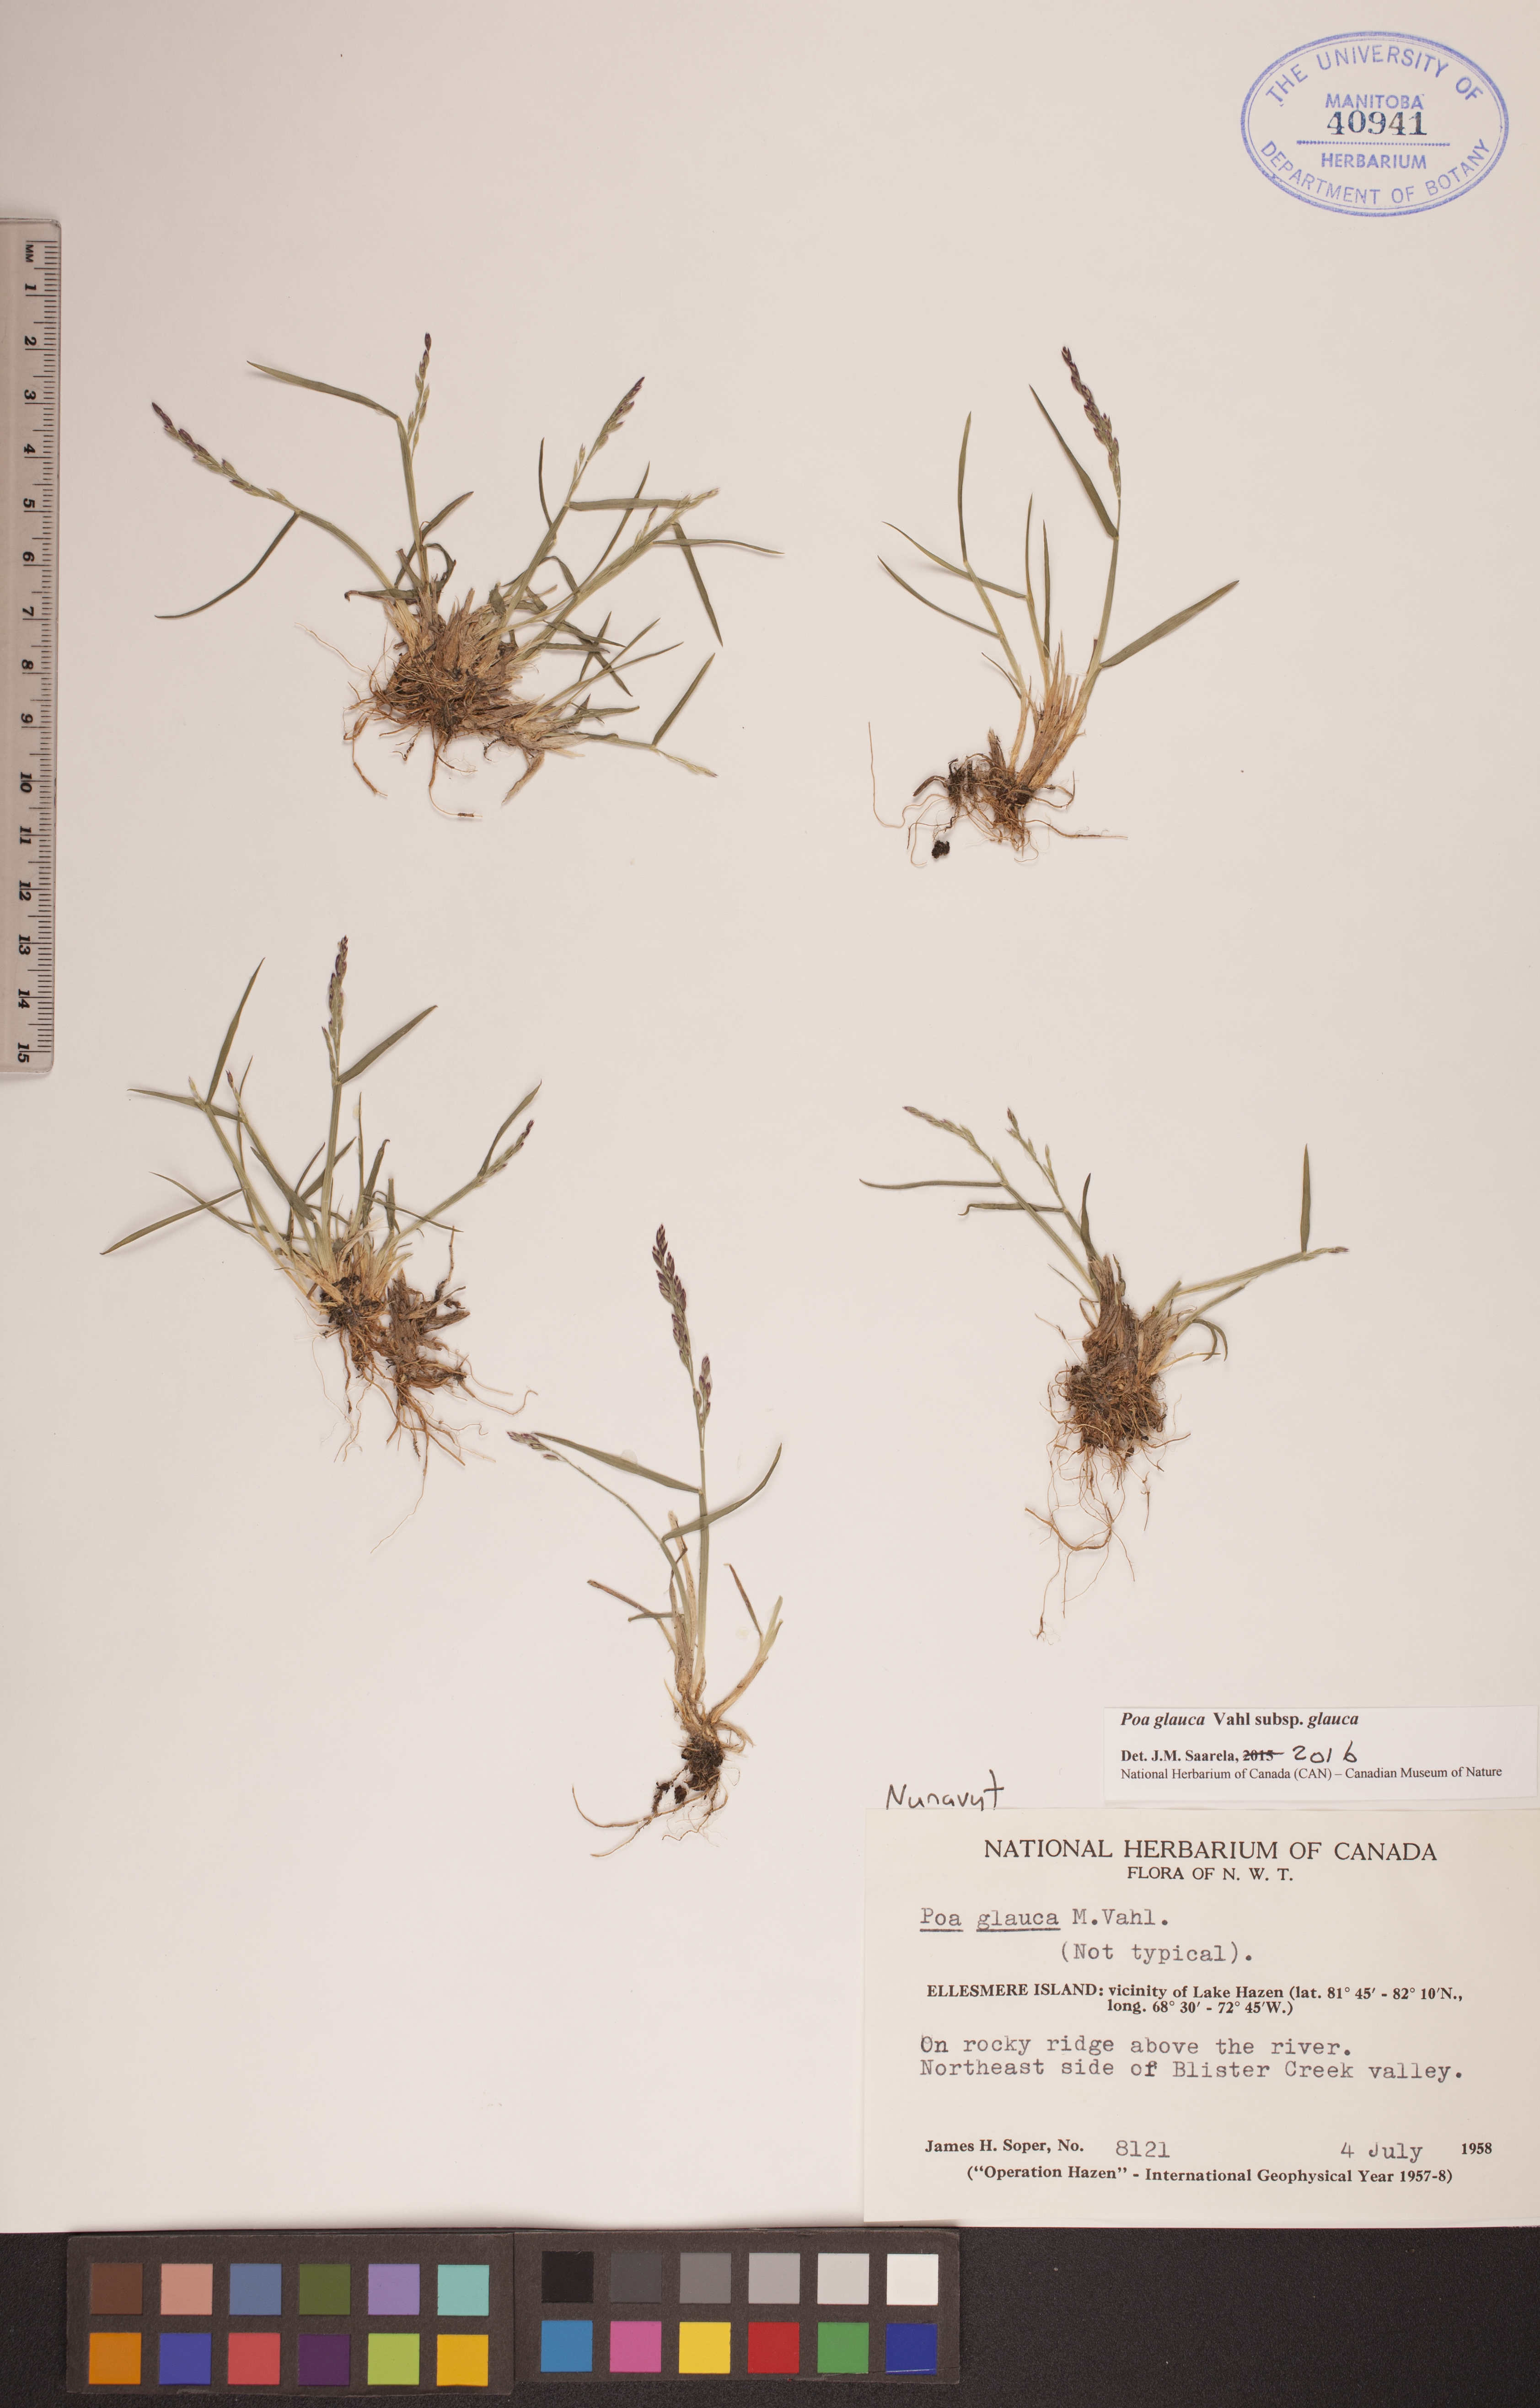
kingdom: Plantae
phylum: Tracheophyta
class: Liliopsida
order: Poales
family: Poaceae
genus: Poa
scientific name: Poa glauca
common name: Glaucous bluegrass
